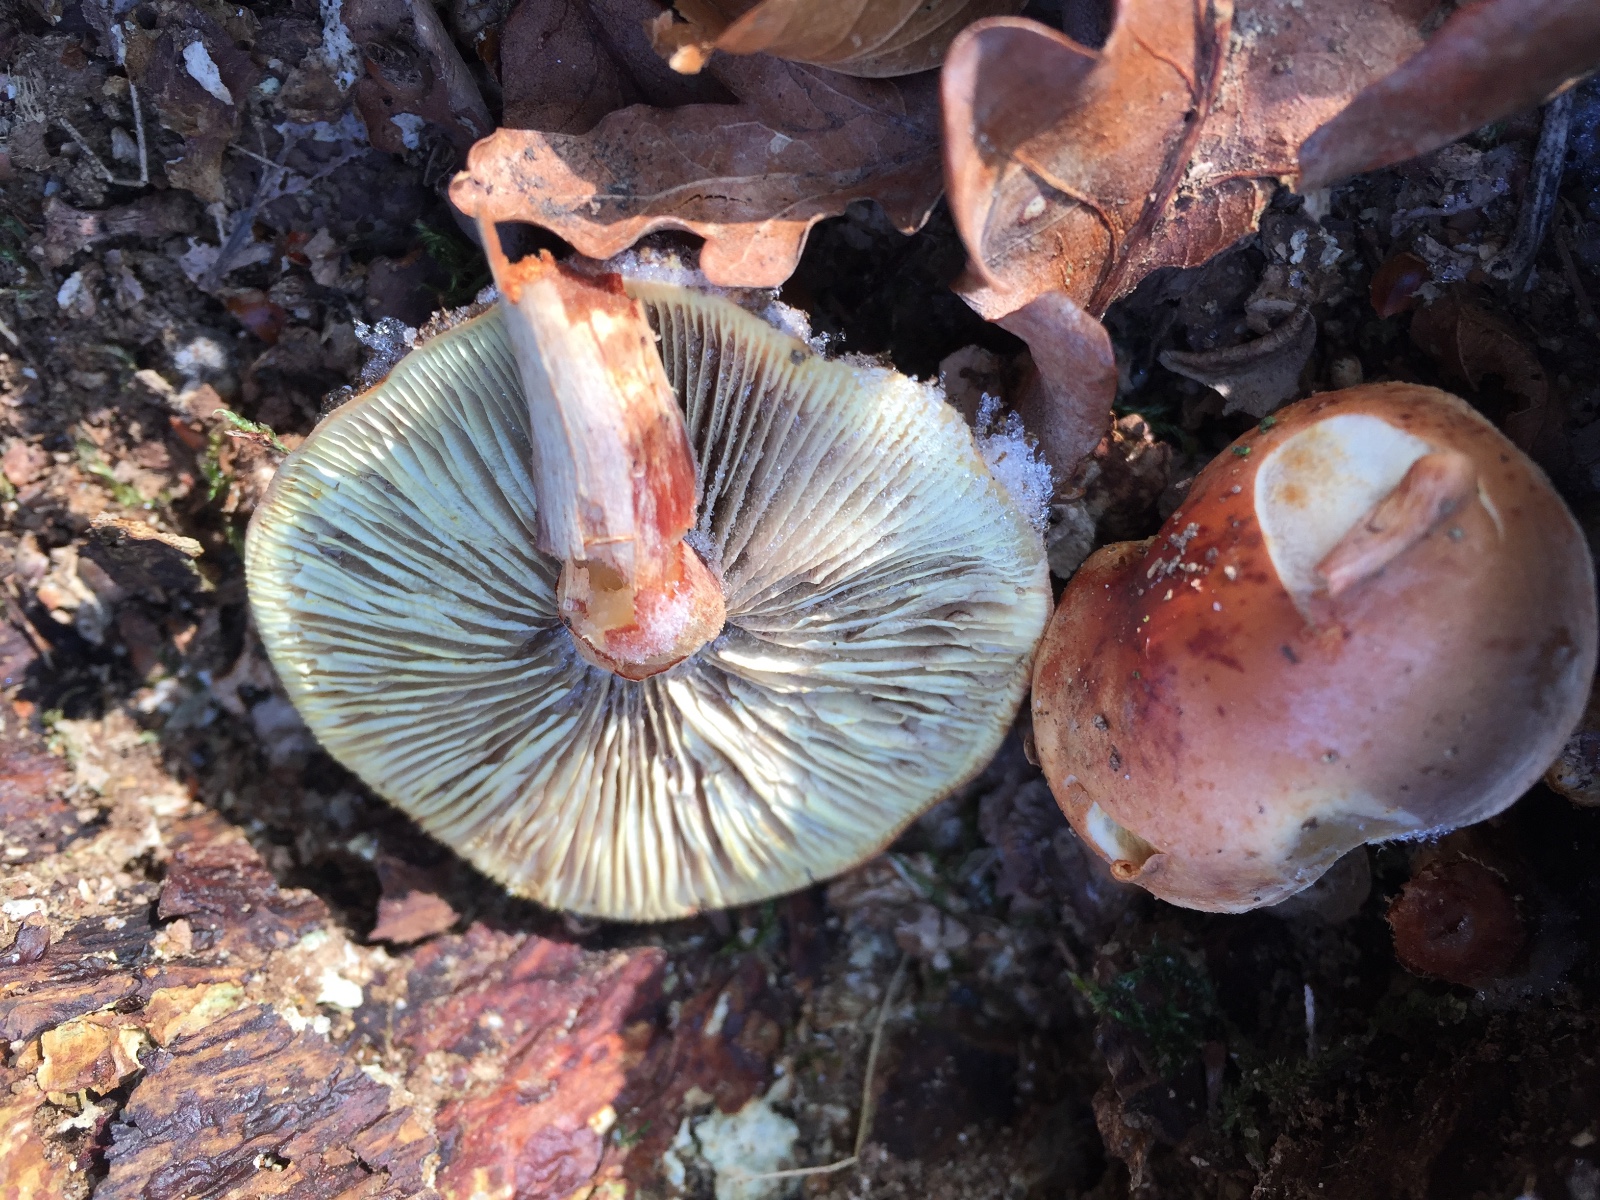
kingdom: Fungi
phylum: Basidiomycota
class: Agaricomycetes
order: Agaricales
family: Strophariaceae
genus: Hypholoma
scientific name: Hypholoma lateritium
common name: teglrød svovlhat
